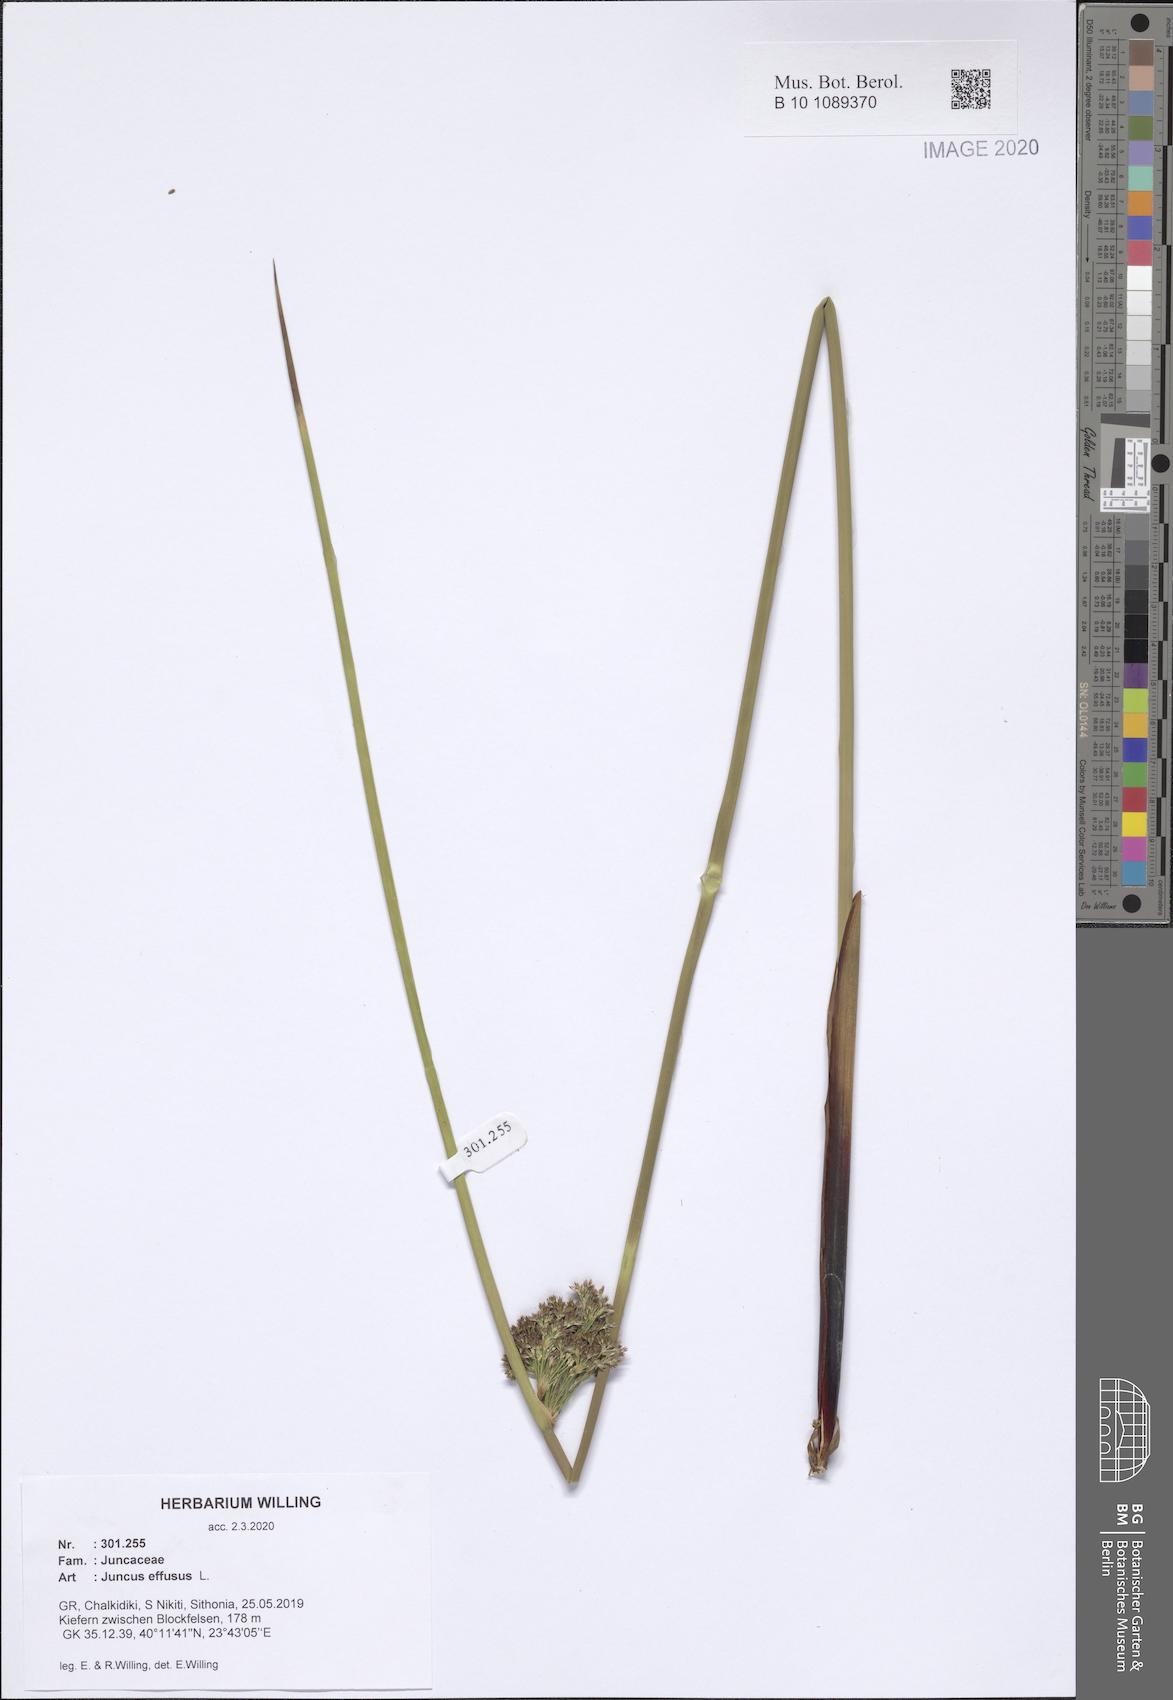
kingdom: Plantae
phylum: Tracheophyta
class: Liliopsida
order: Poales
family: Juncaceae
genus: Juncus
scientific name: Juncus effusus
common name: Soft rush
